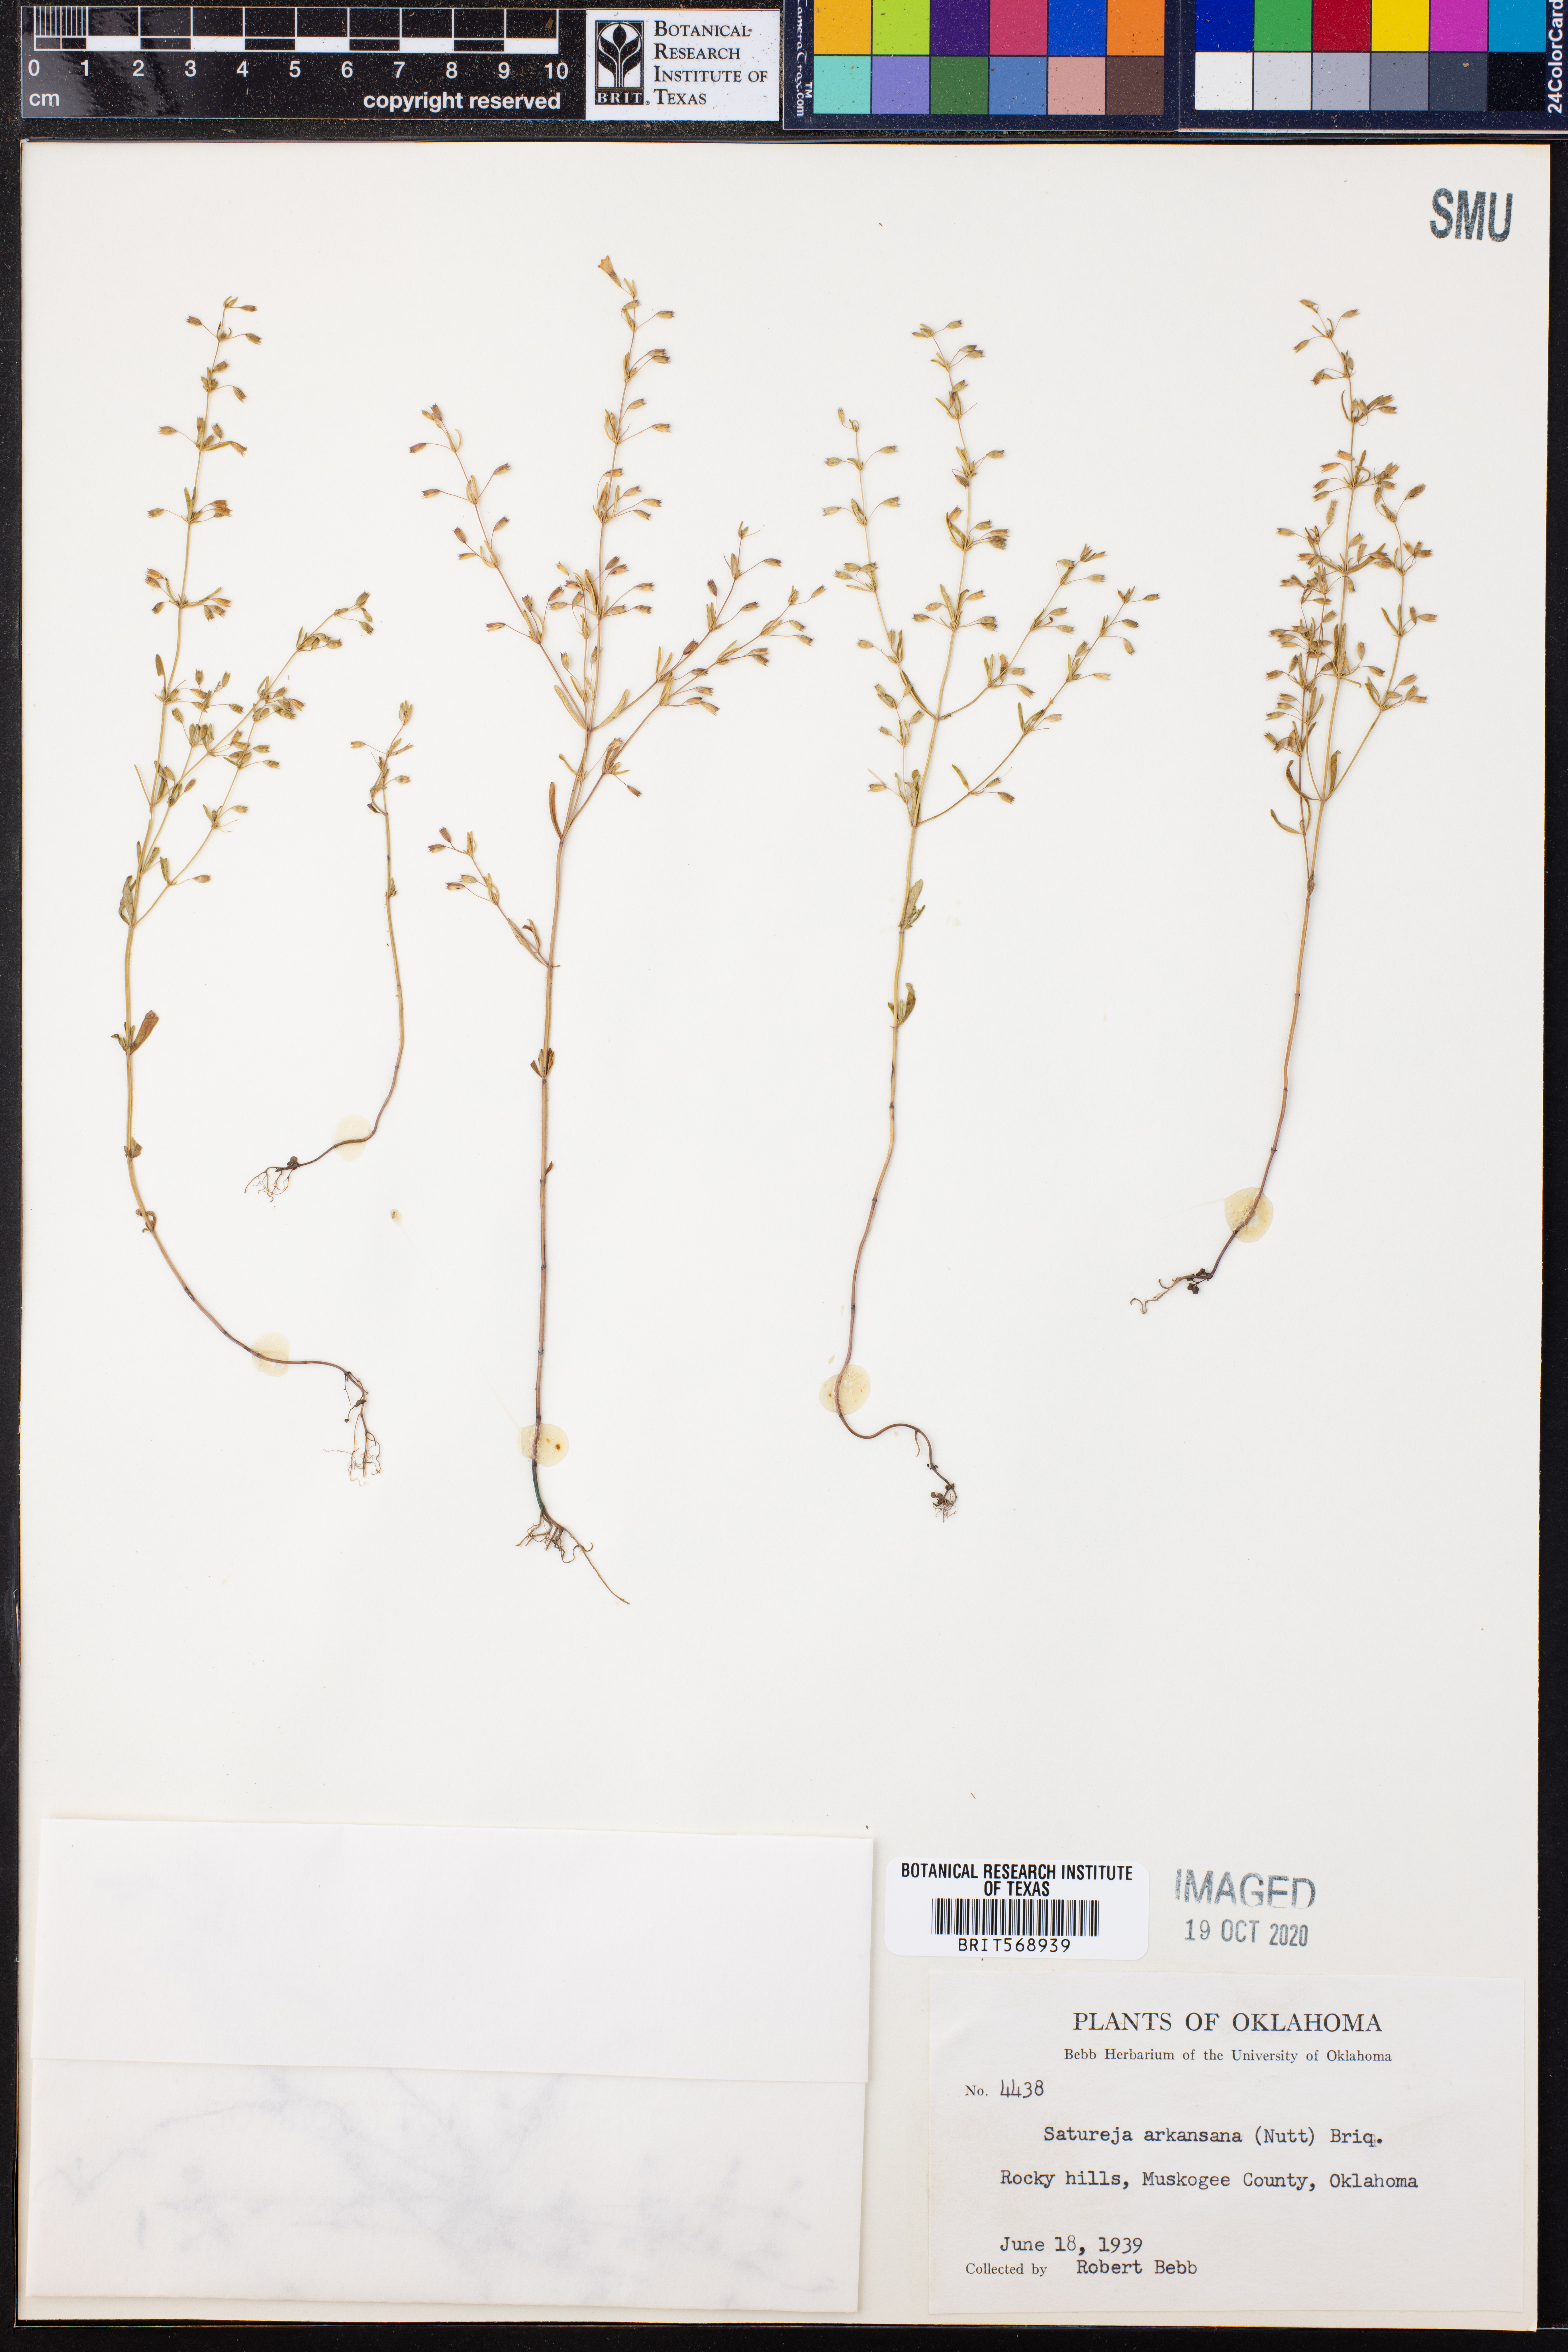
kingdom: Plantae
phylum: Tracheophyta
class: Magnoliopsida
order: Lamiales
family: Lamiaceae
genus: Clinopodium
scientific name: Clinopodium arkansanum
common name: Limestone calamint
